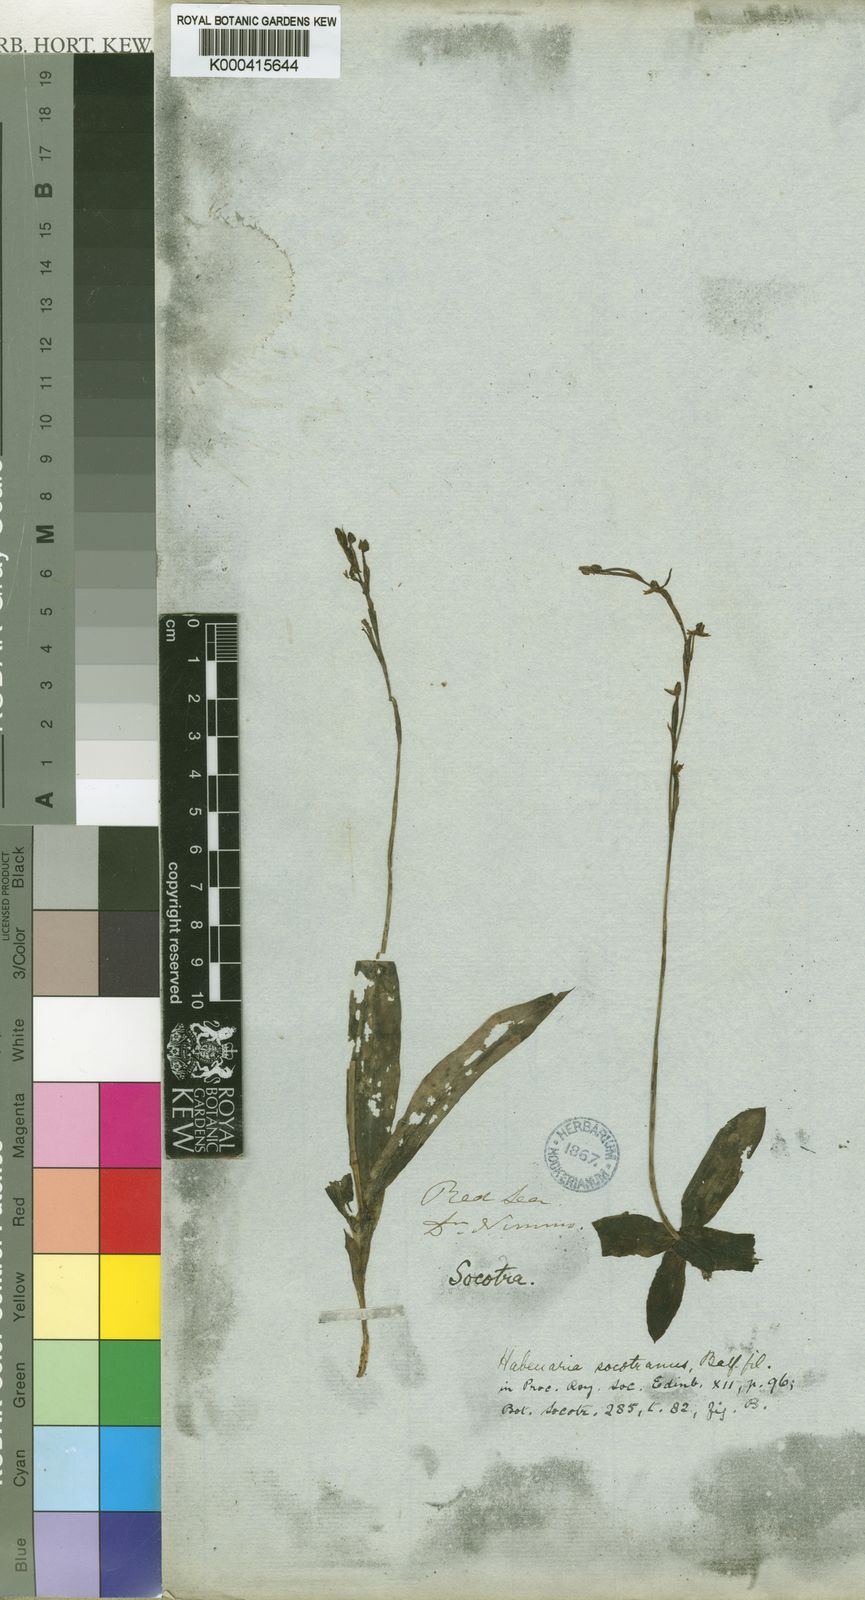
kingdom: Plantae
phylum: Tracheophyta
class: Liliopsida
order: Asparagales
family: Orchidaceae
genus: Habenaria
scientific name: Habenaria socotrana
